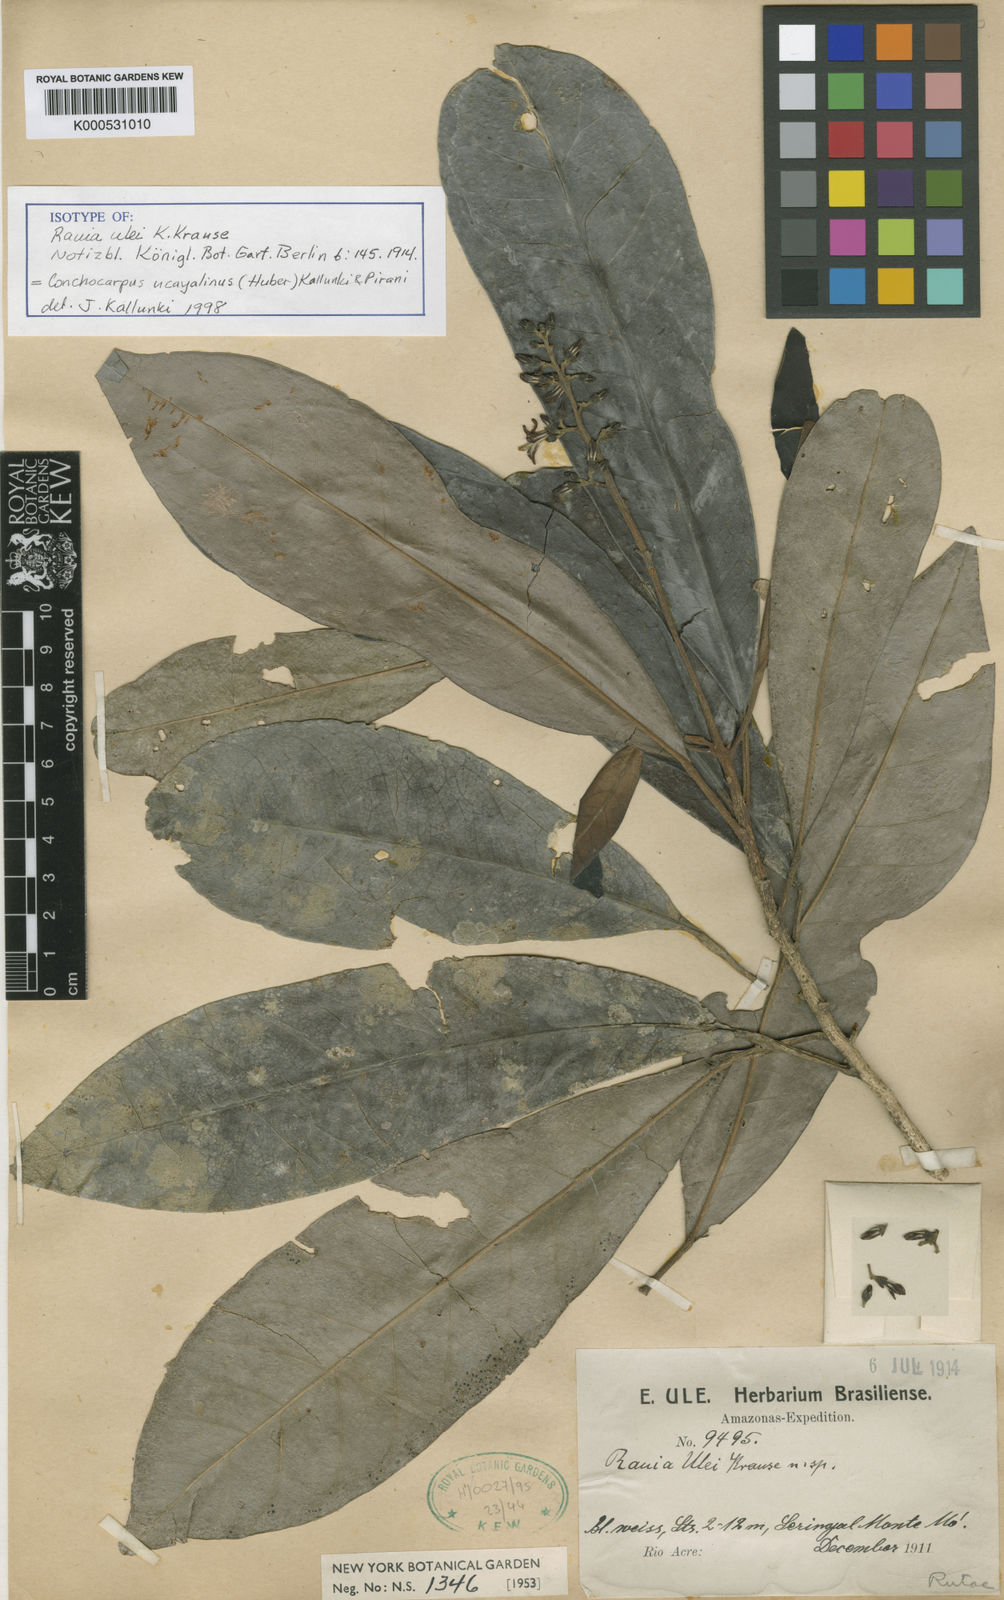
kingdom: Plantae
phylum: Tracheophyta
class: Magnoliopsida
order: Sapindales
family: Rutaceae
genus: Conchocarpus
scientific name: Conchocarpus ucayalinus
